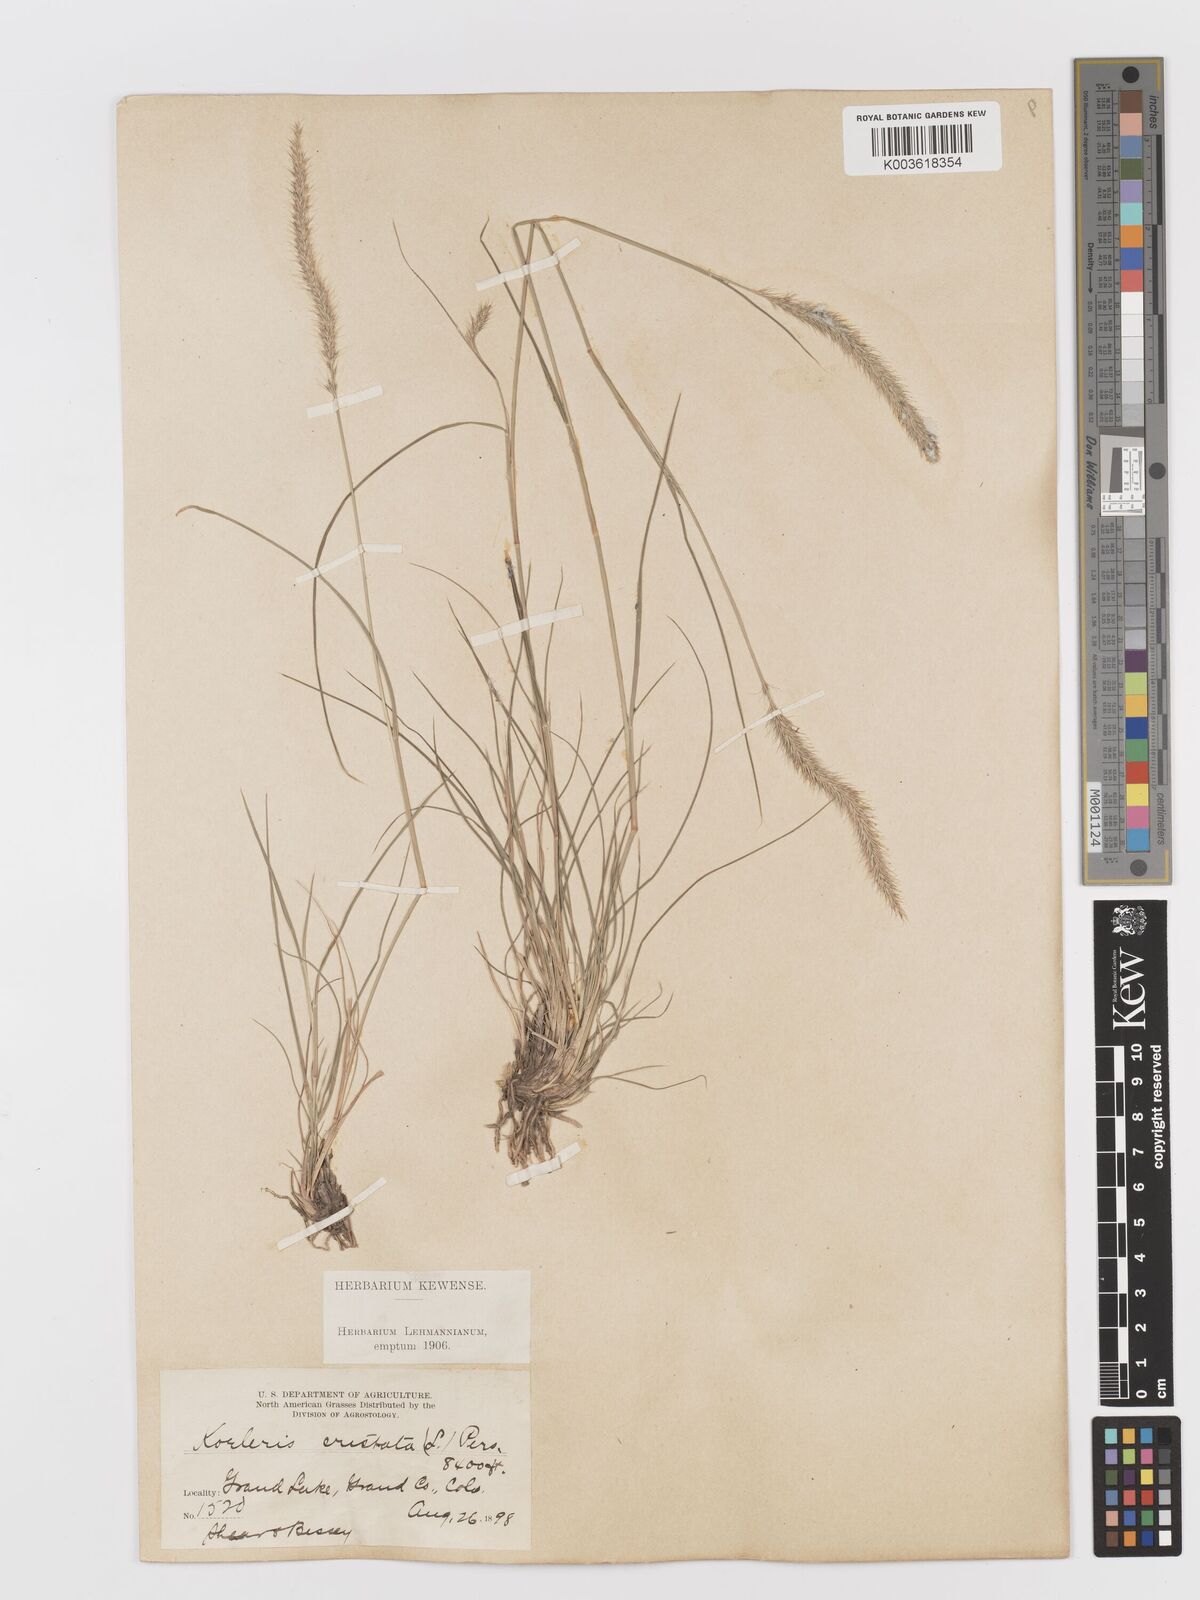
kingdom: Plantae
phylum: Tracheophyta
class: Liliopsida
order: Poales
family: Poaceae
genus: Koeleria
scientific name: Koeleria
